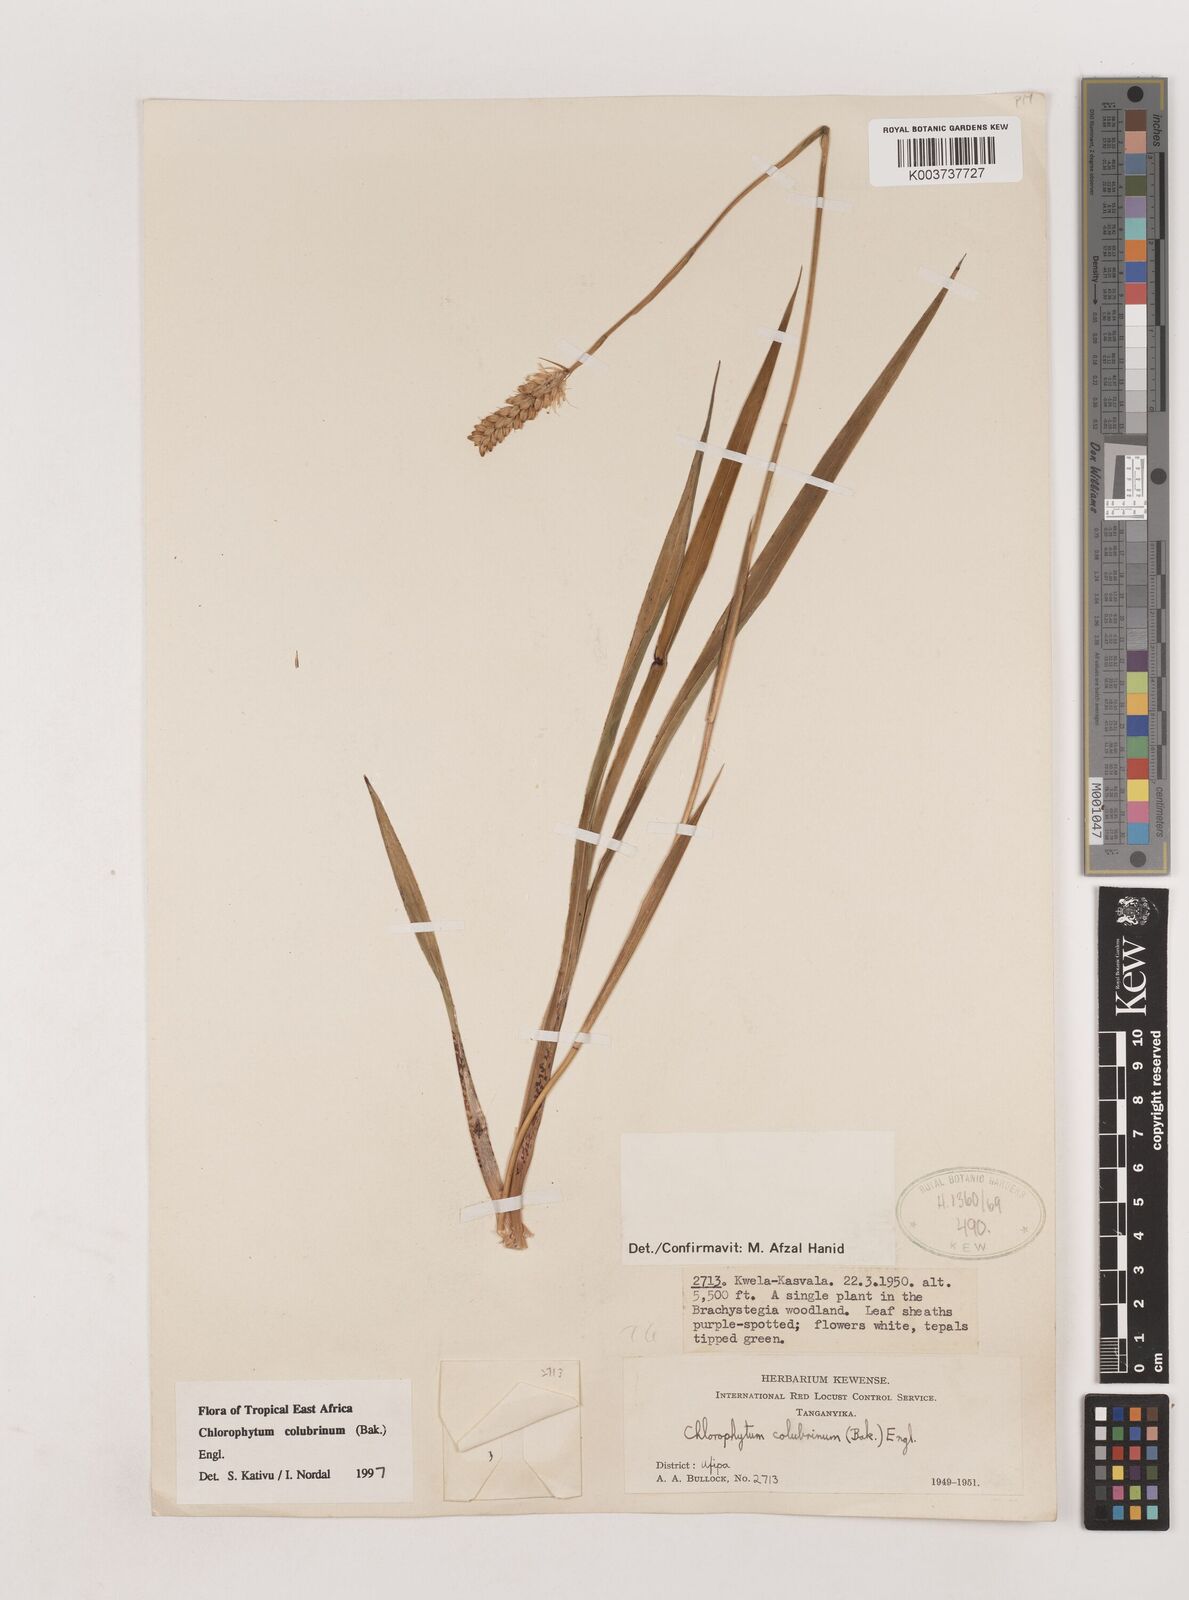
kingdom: Plantae
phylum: Tracheophyta
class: Liliopsida
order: Asparagales
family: Asparagaceae
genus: Chlorophytum
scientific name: Chlorophytum colubrinum
